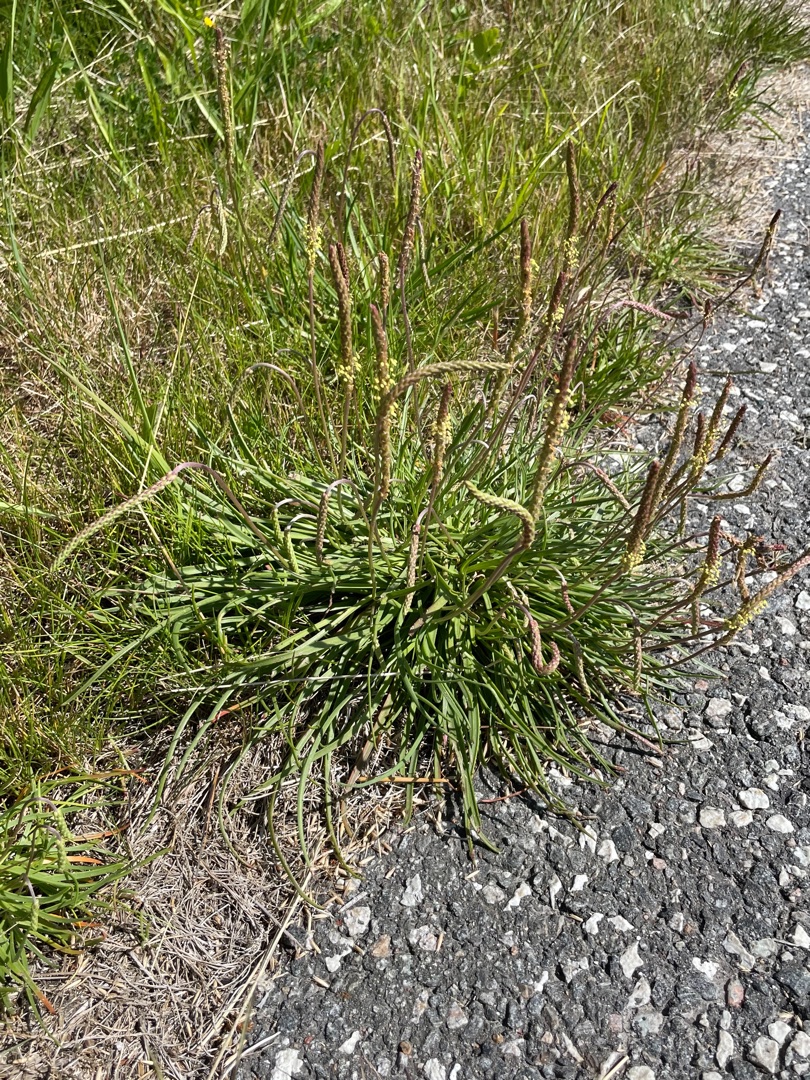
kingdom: Plantae
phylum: Tracheophyta
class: Magnoliopsida
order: Lamiales
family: Plantaginaceae
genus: Plantago
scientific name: Plantago maritima
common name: Strand-vejbred
